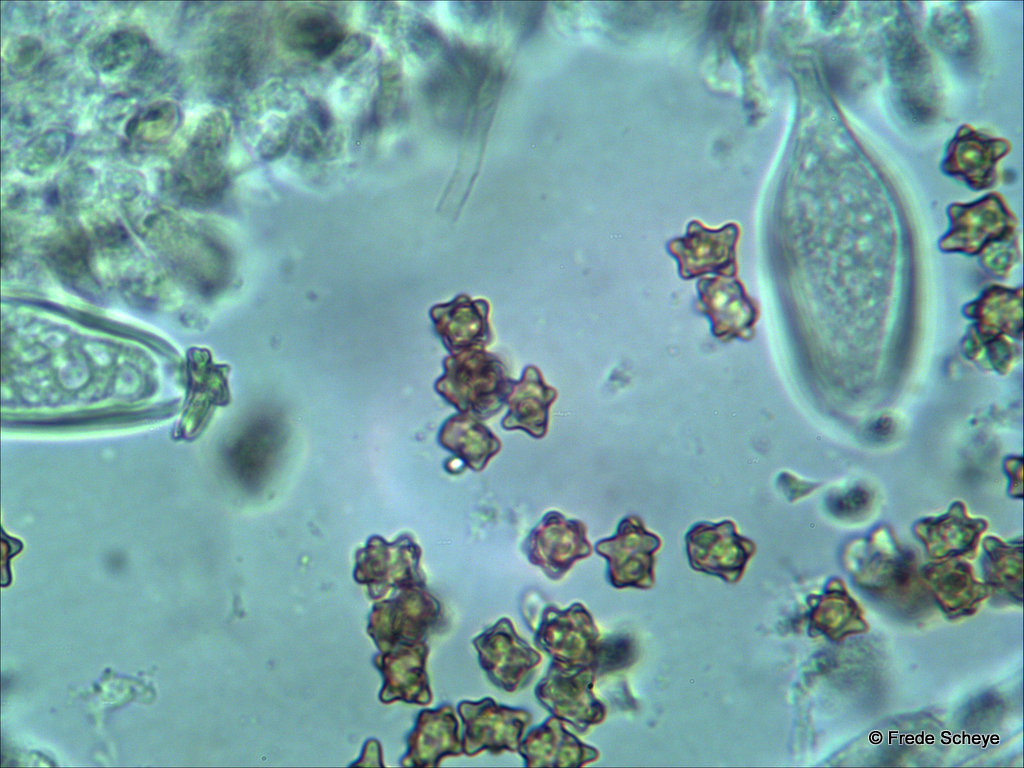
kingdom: Fungi
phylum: Basidiomycota
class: Agaricomycetes
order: Agaricales
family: Inocybaceae
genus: Inocybe
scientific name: Inocybe napipes
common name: roeknoldet trævlhat
